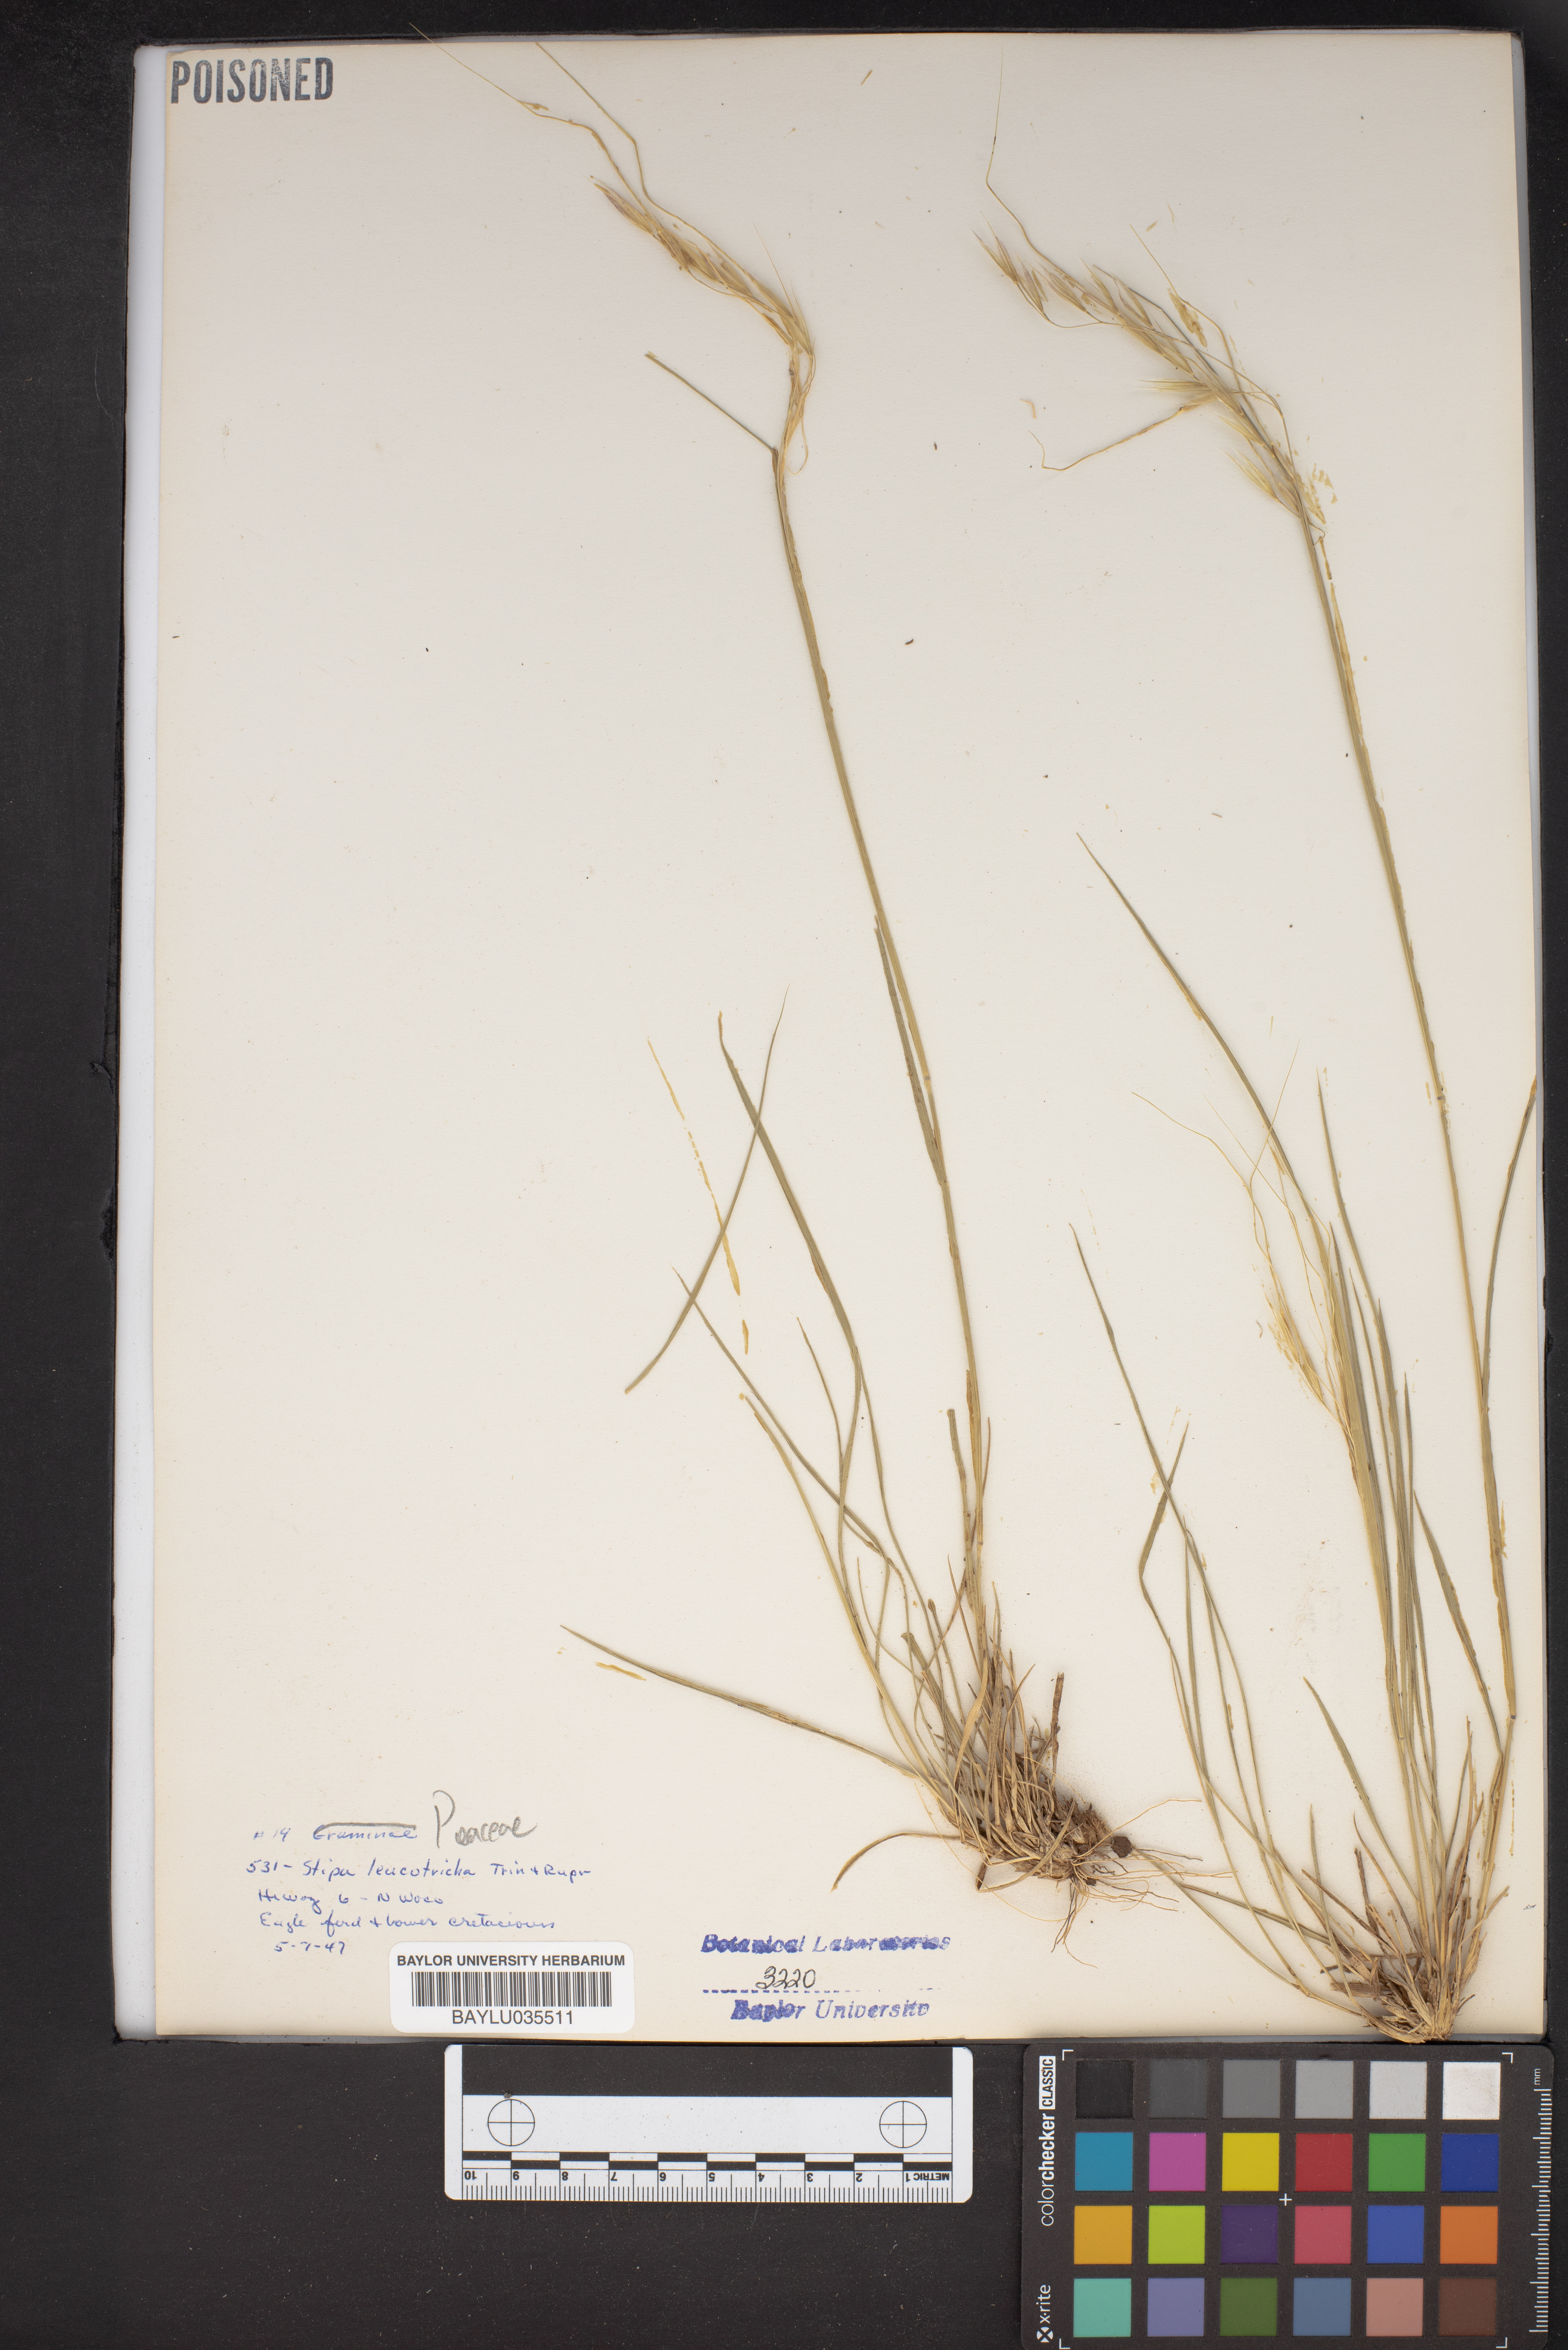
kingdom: Plantae
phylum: Tracheophyta
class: Liliopsida
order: Poales
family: Poaceae
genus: Nassella
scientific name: Nassella leucotricha
